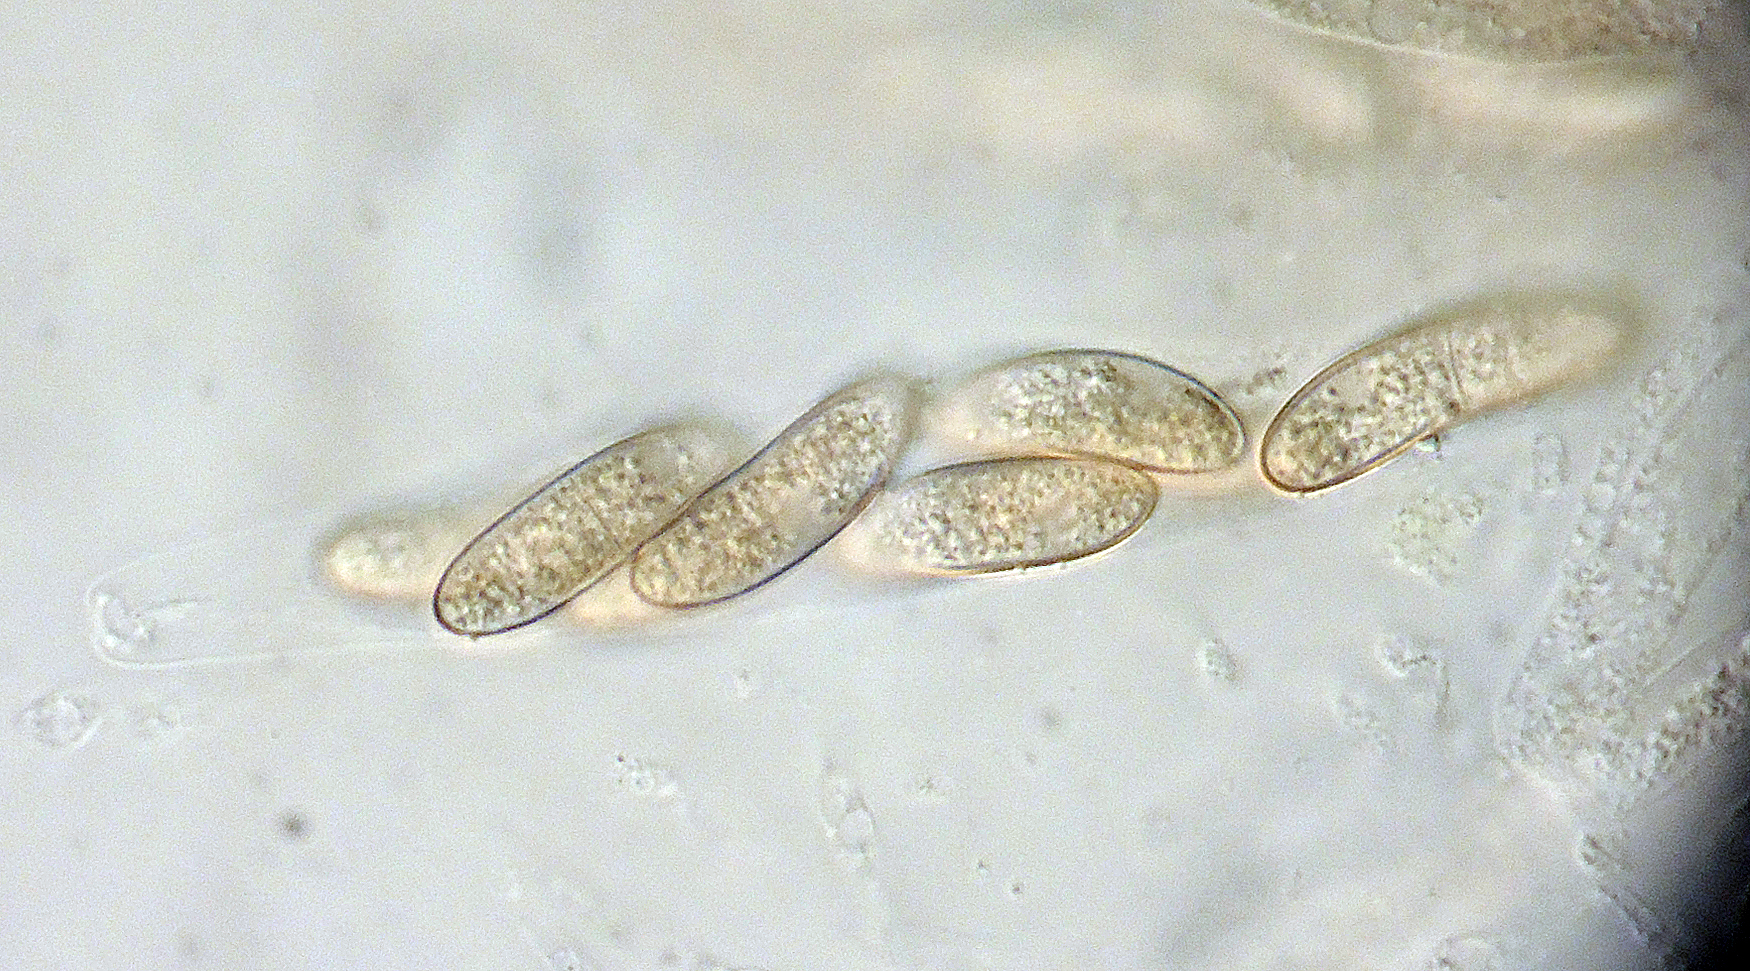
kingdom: Fungi
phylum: Ascomycota
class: Sordariomycetes
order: Sordariales
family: Helminthosphaeriaceae
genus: Helminthosphaeria
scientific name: Helminthosphaeria stuppea
